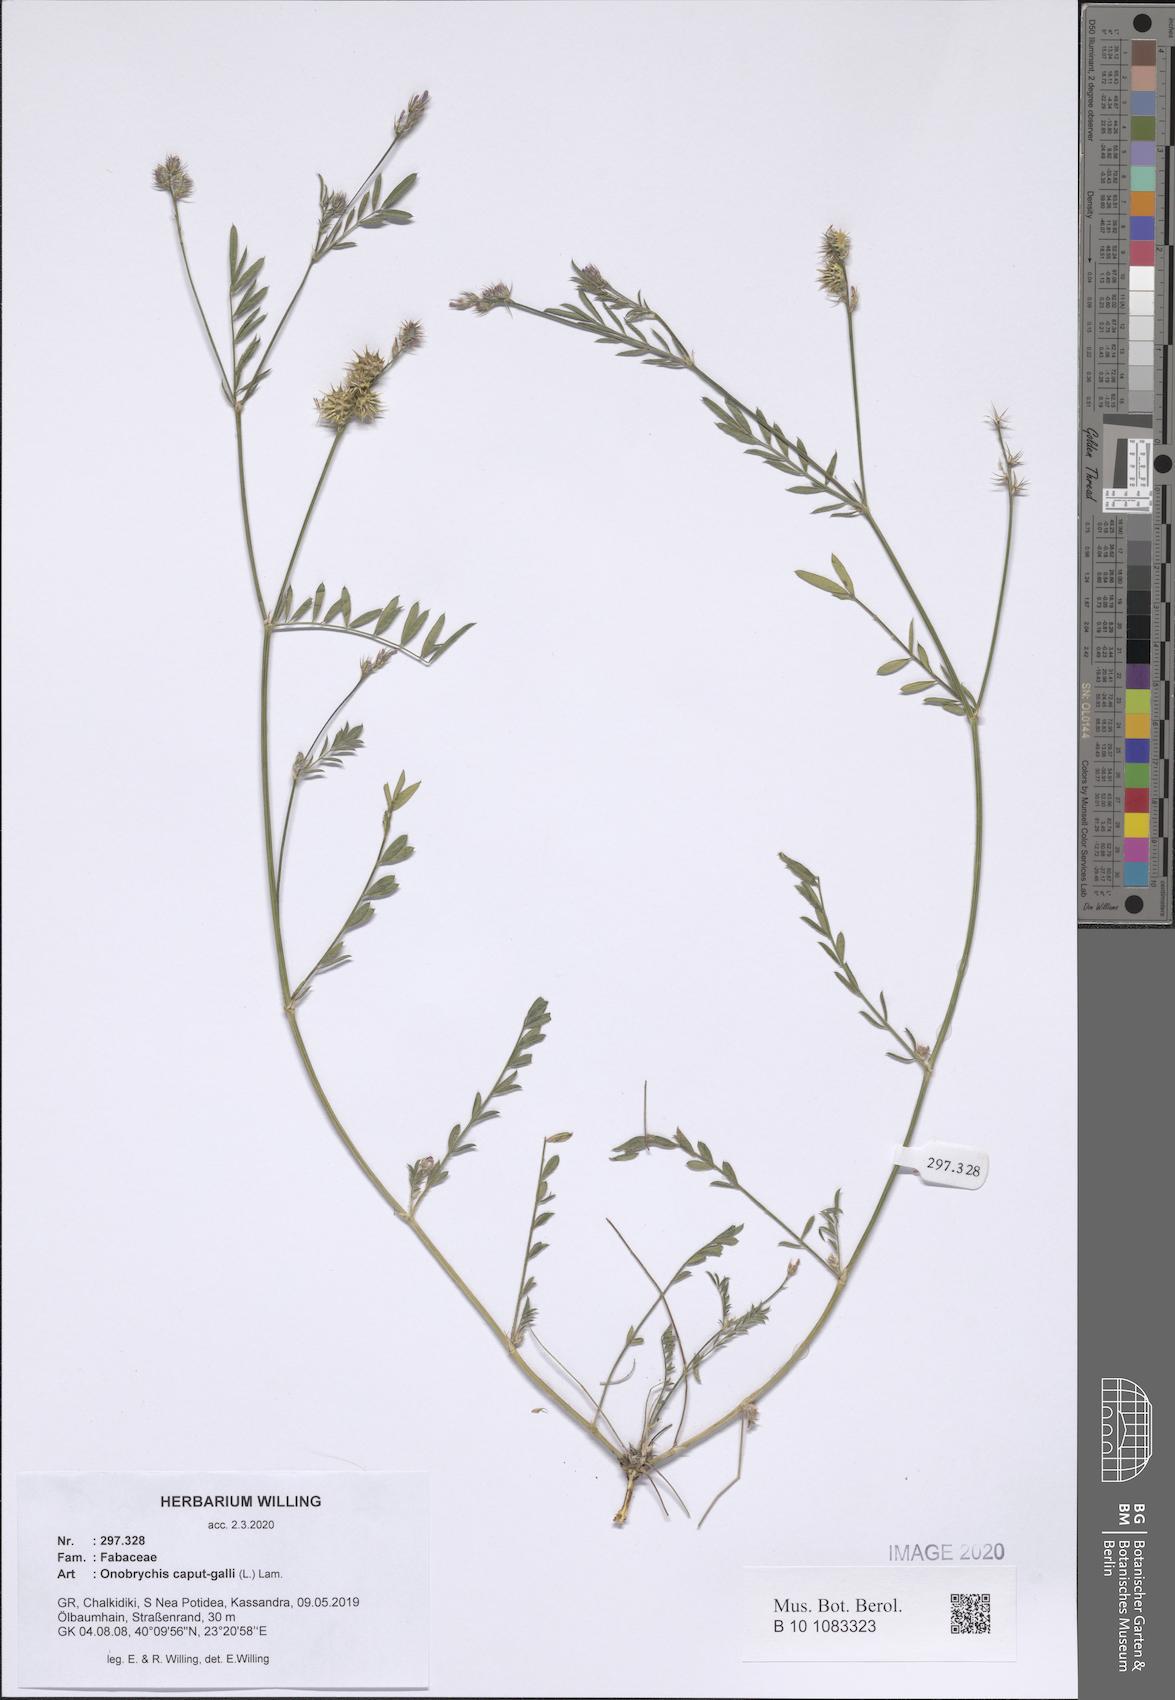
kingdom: Plantae
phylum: Tracheophyta
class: Magnoliopsida
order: Fabales
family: Fabaceae
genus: Onobrychis
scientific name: Onobrychis caput-galli
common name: Cockscomb sainfoin
